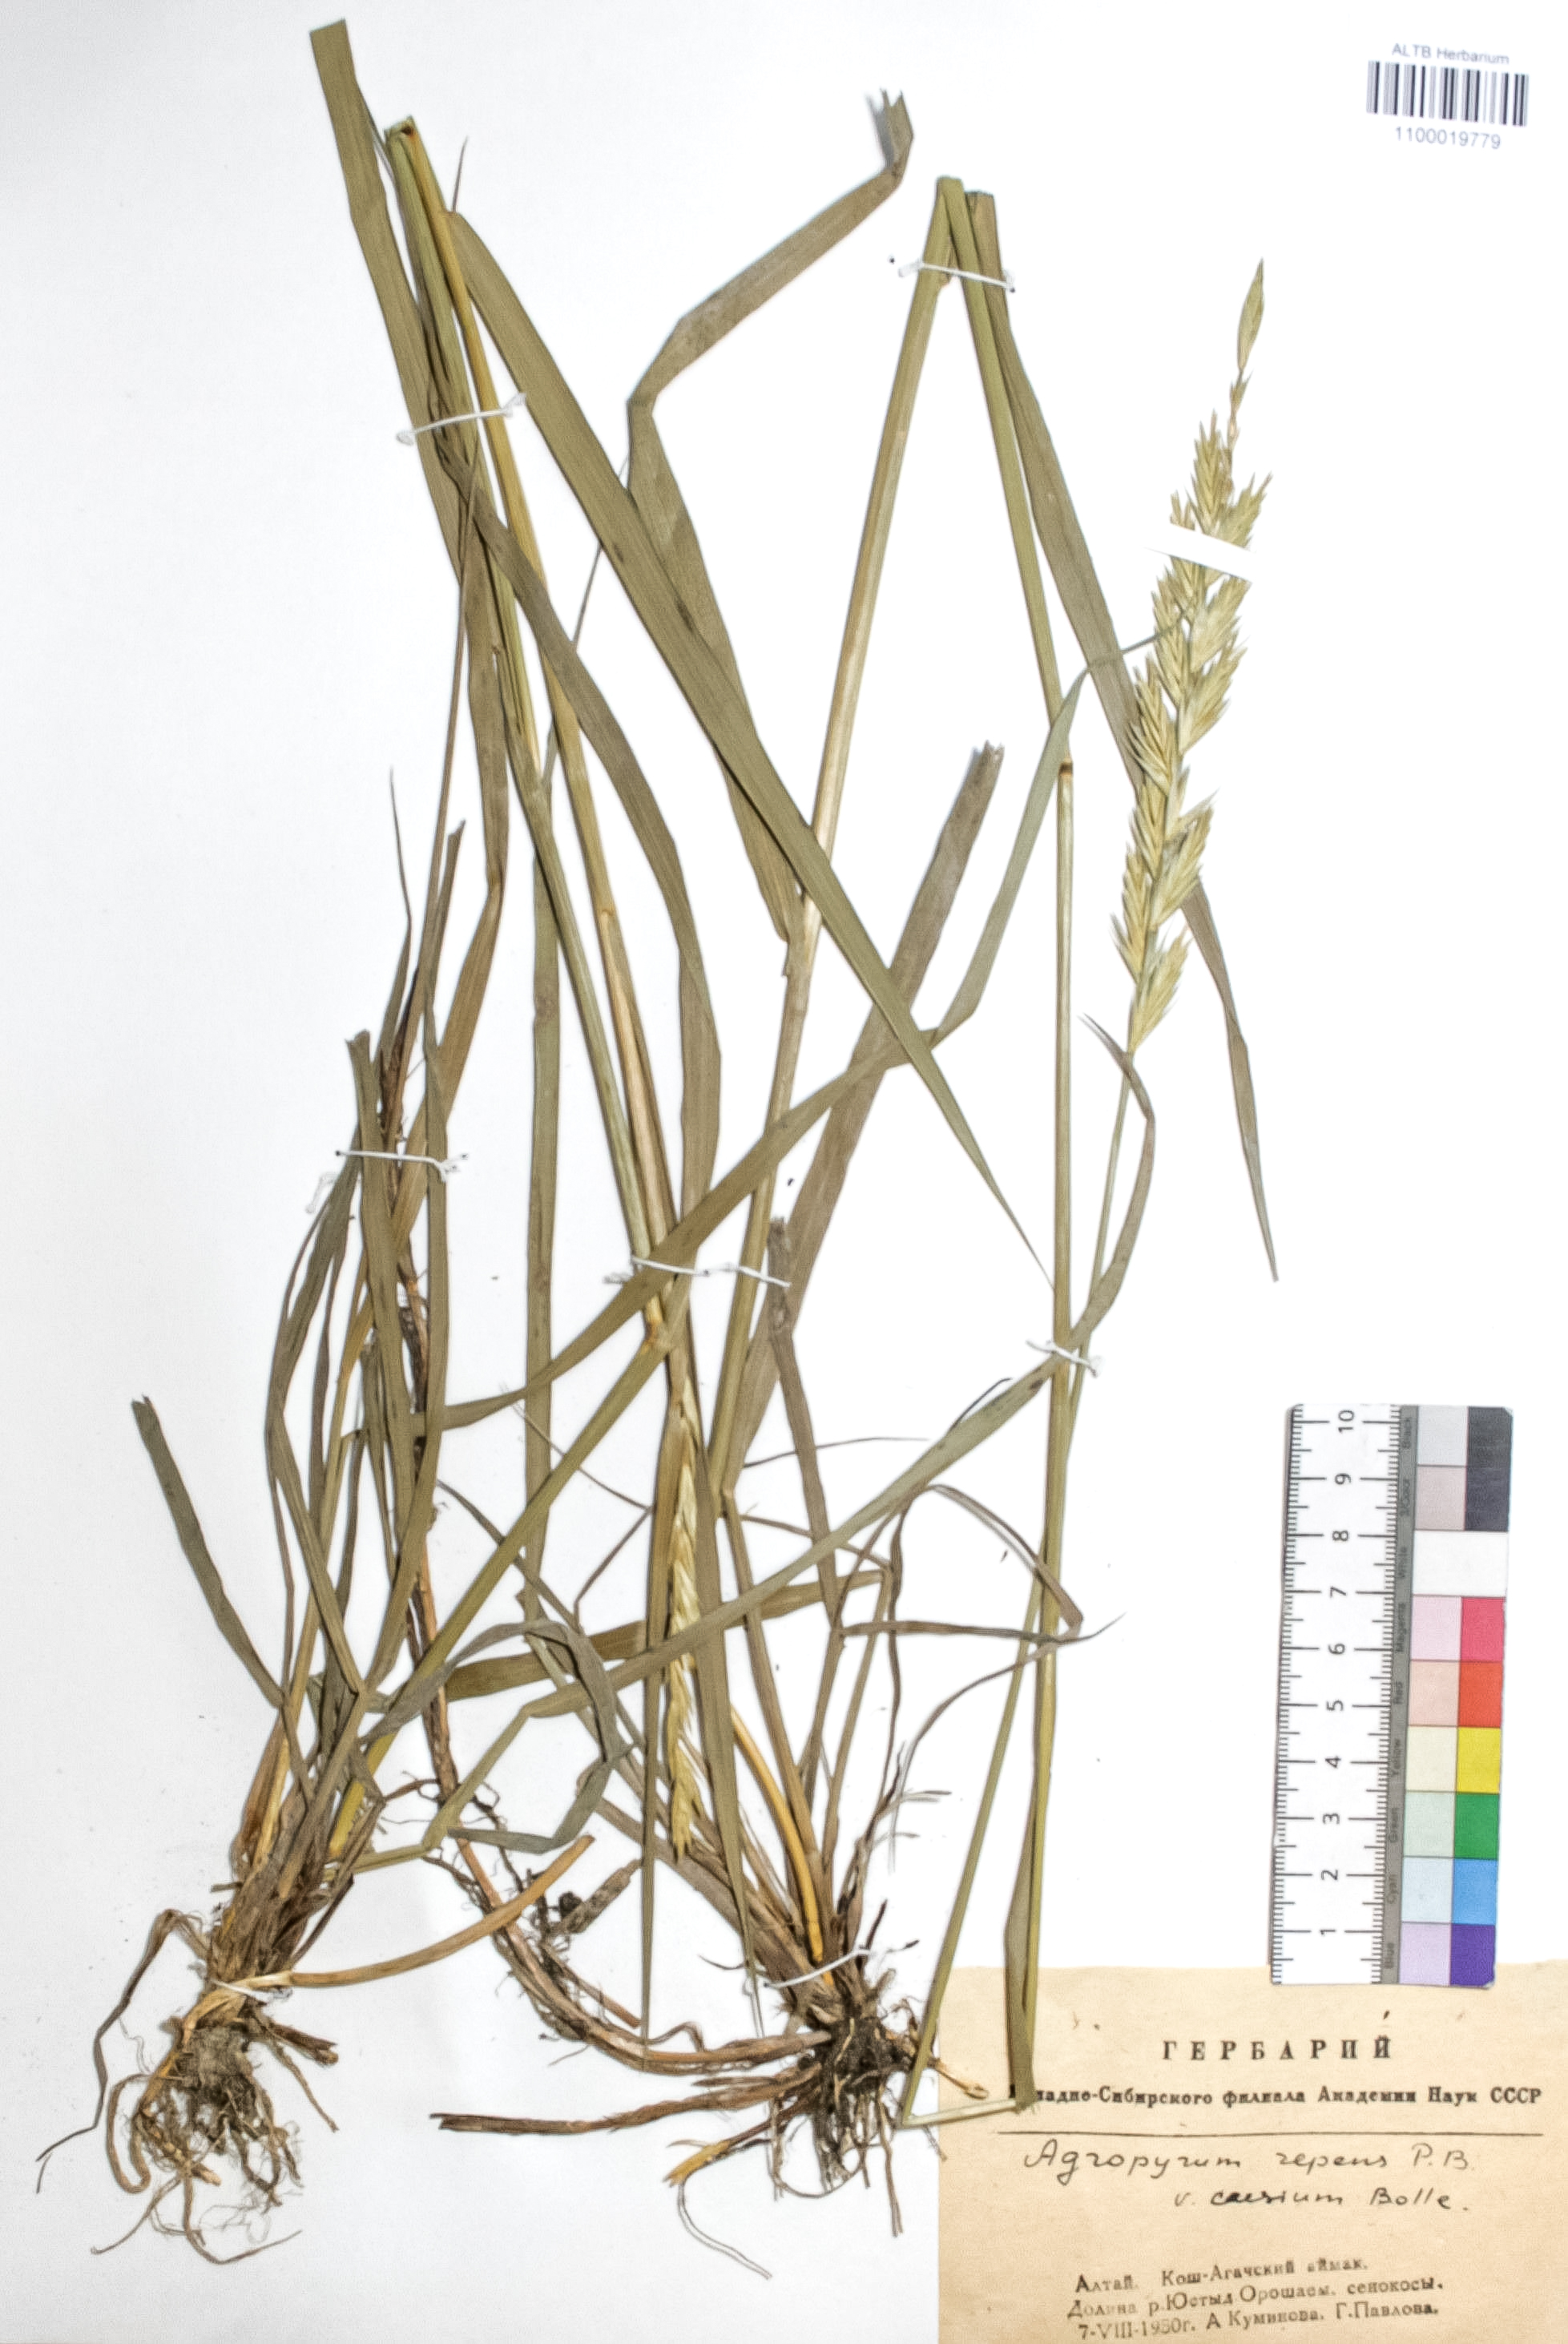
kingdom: Plantae
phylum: Tracheophyta
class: Liliopsida
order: Poales
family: Poaceae
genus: Elymus
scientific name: Elymus repens
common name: Quackgrass
